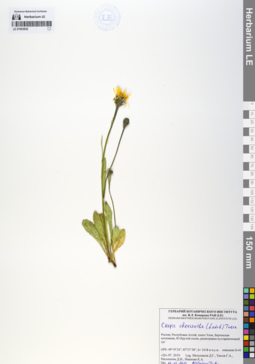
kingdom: Plantae
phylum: Tracheophyta
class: Magnoliopsida
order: Asterales
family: Asteraceae
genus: Crepis
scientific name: Crepis chrysantha
